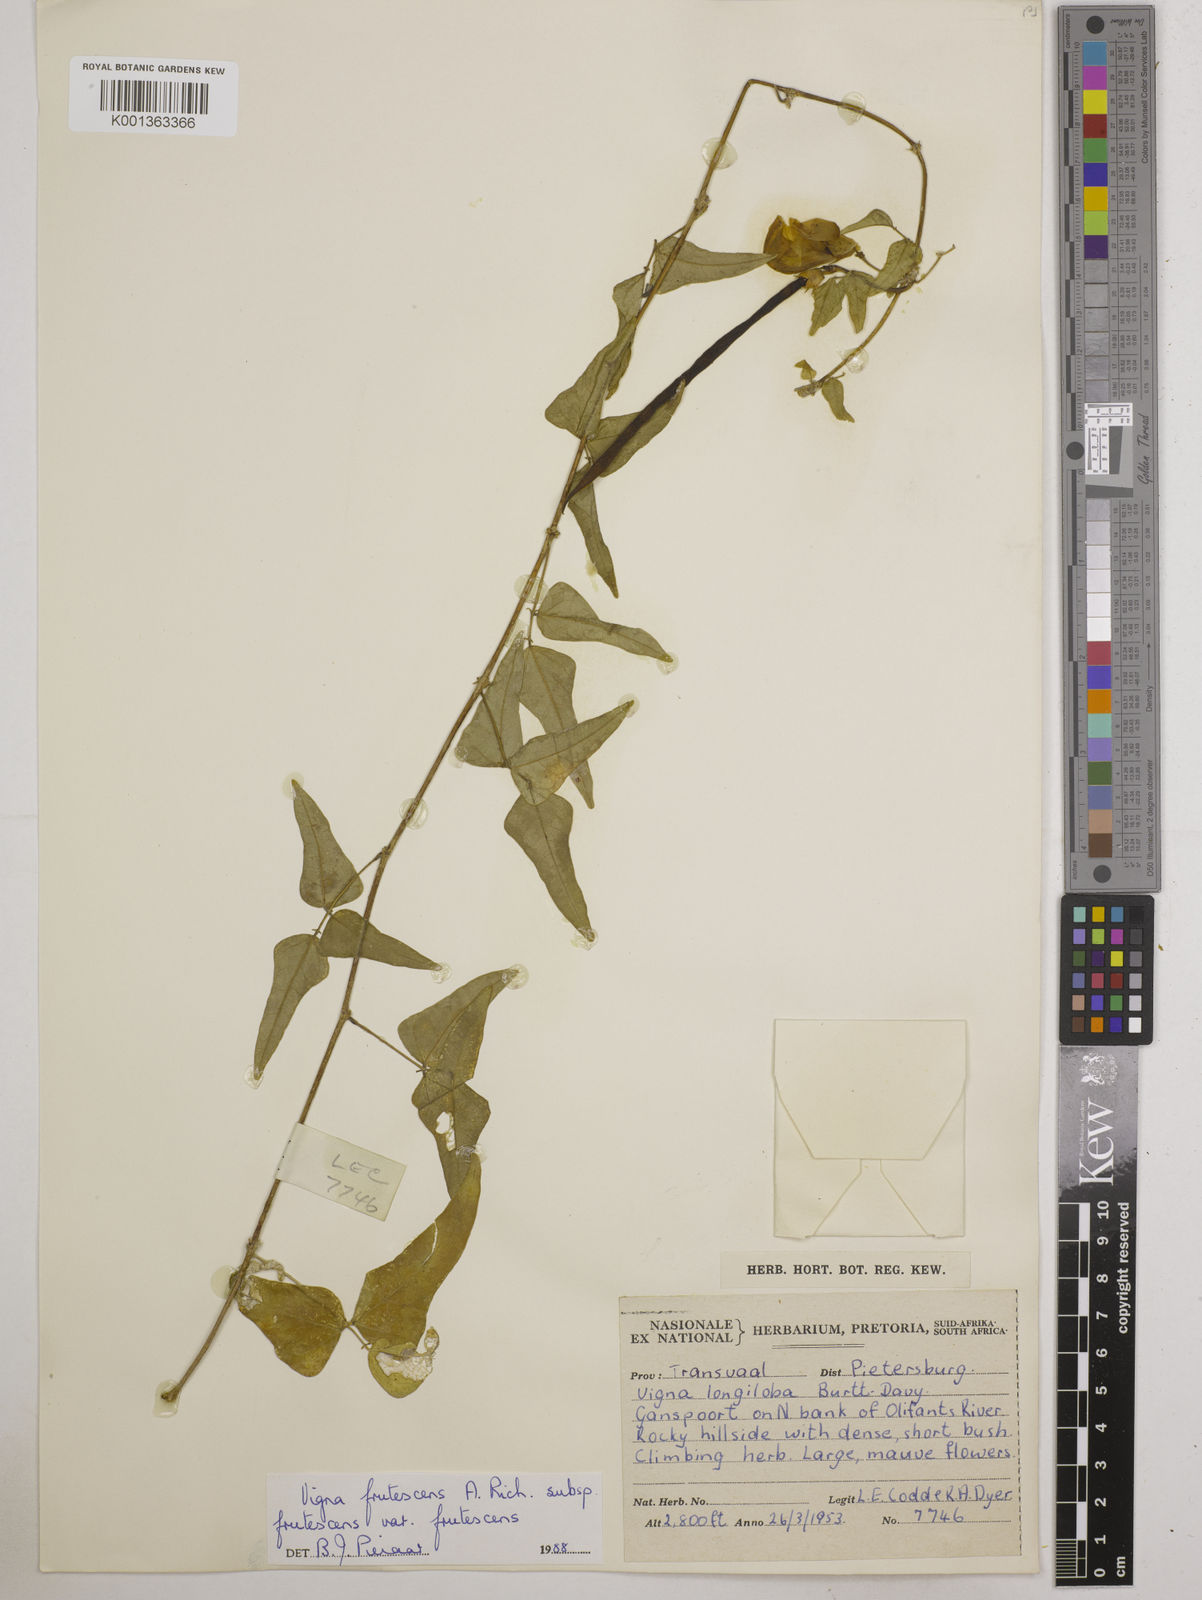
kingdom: Plantae
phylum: Tracheophyta
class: Magnoliopsida
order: Fabales
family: Fabaceae
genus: Vigna
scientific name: Vigna frutescens
